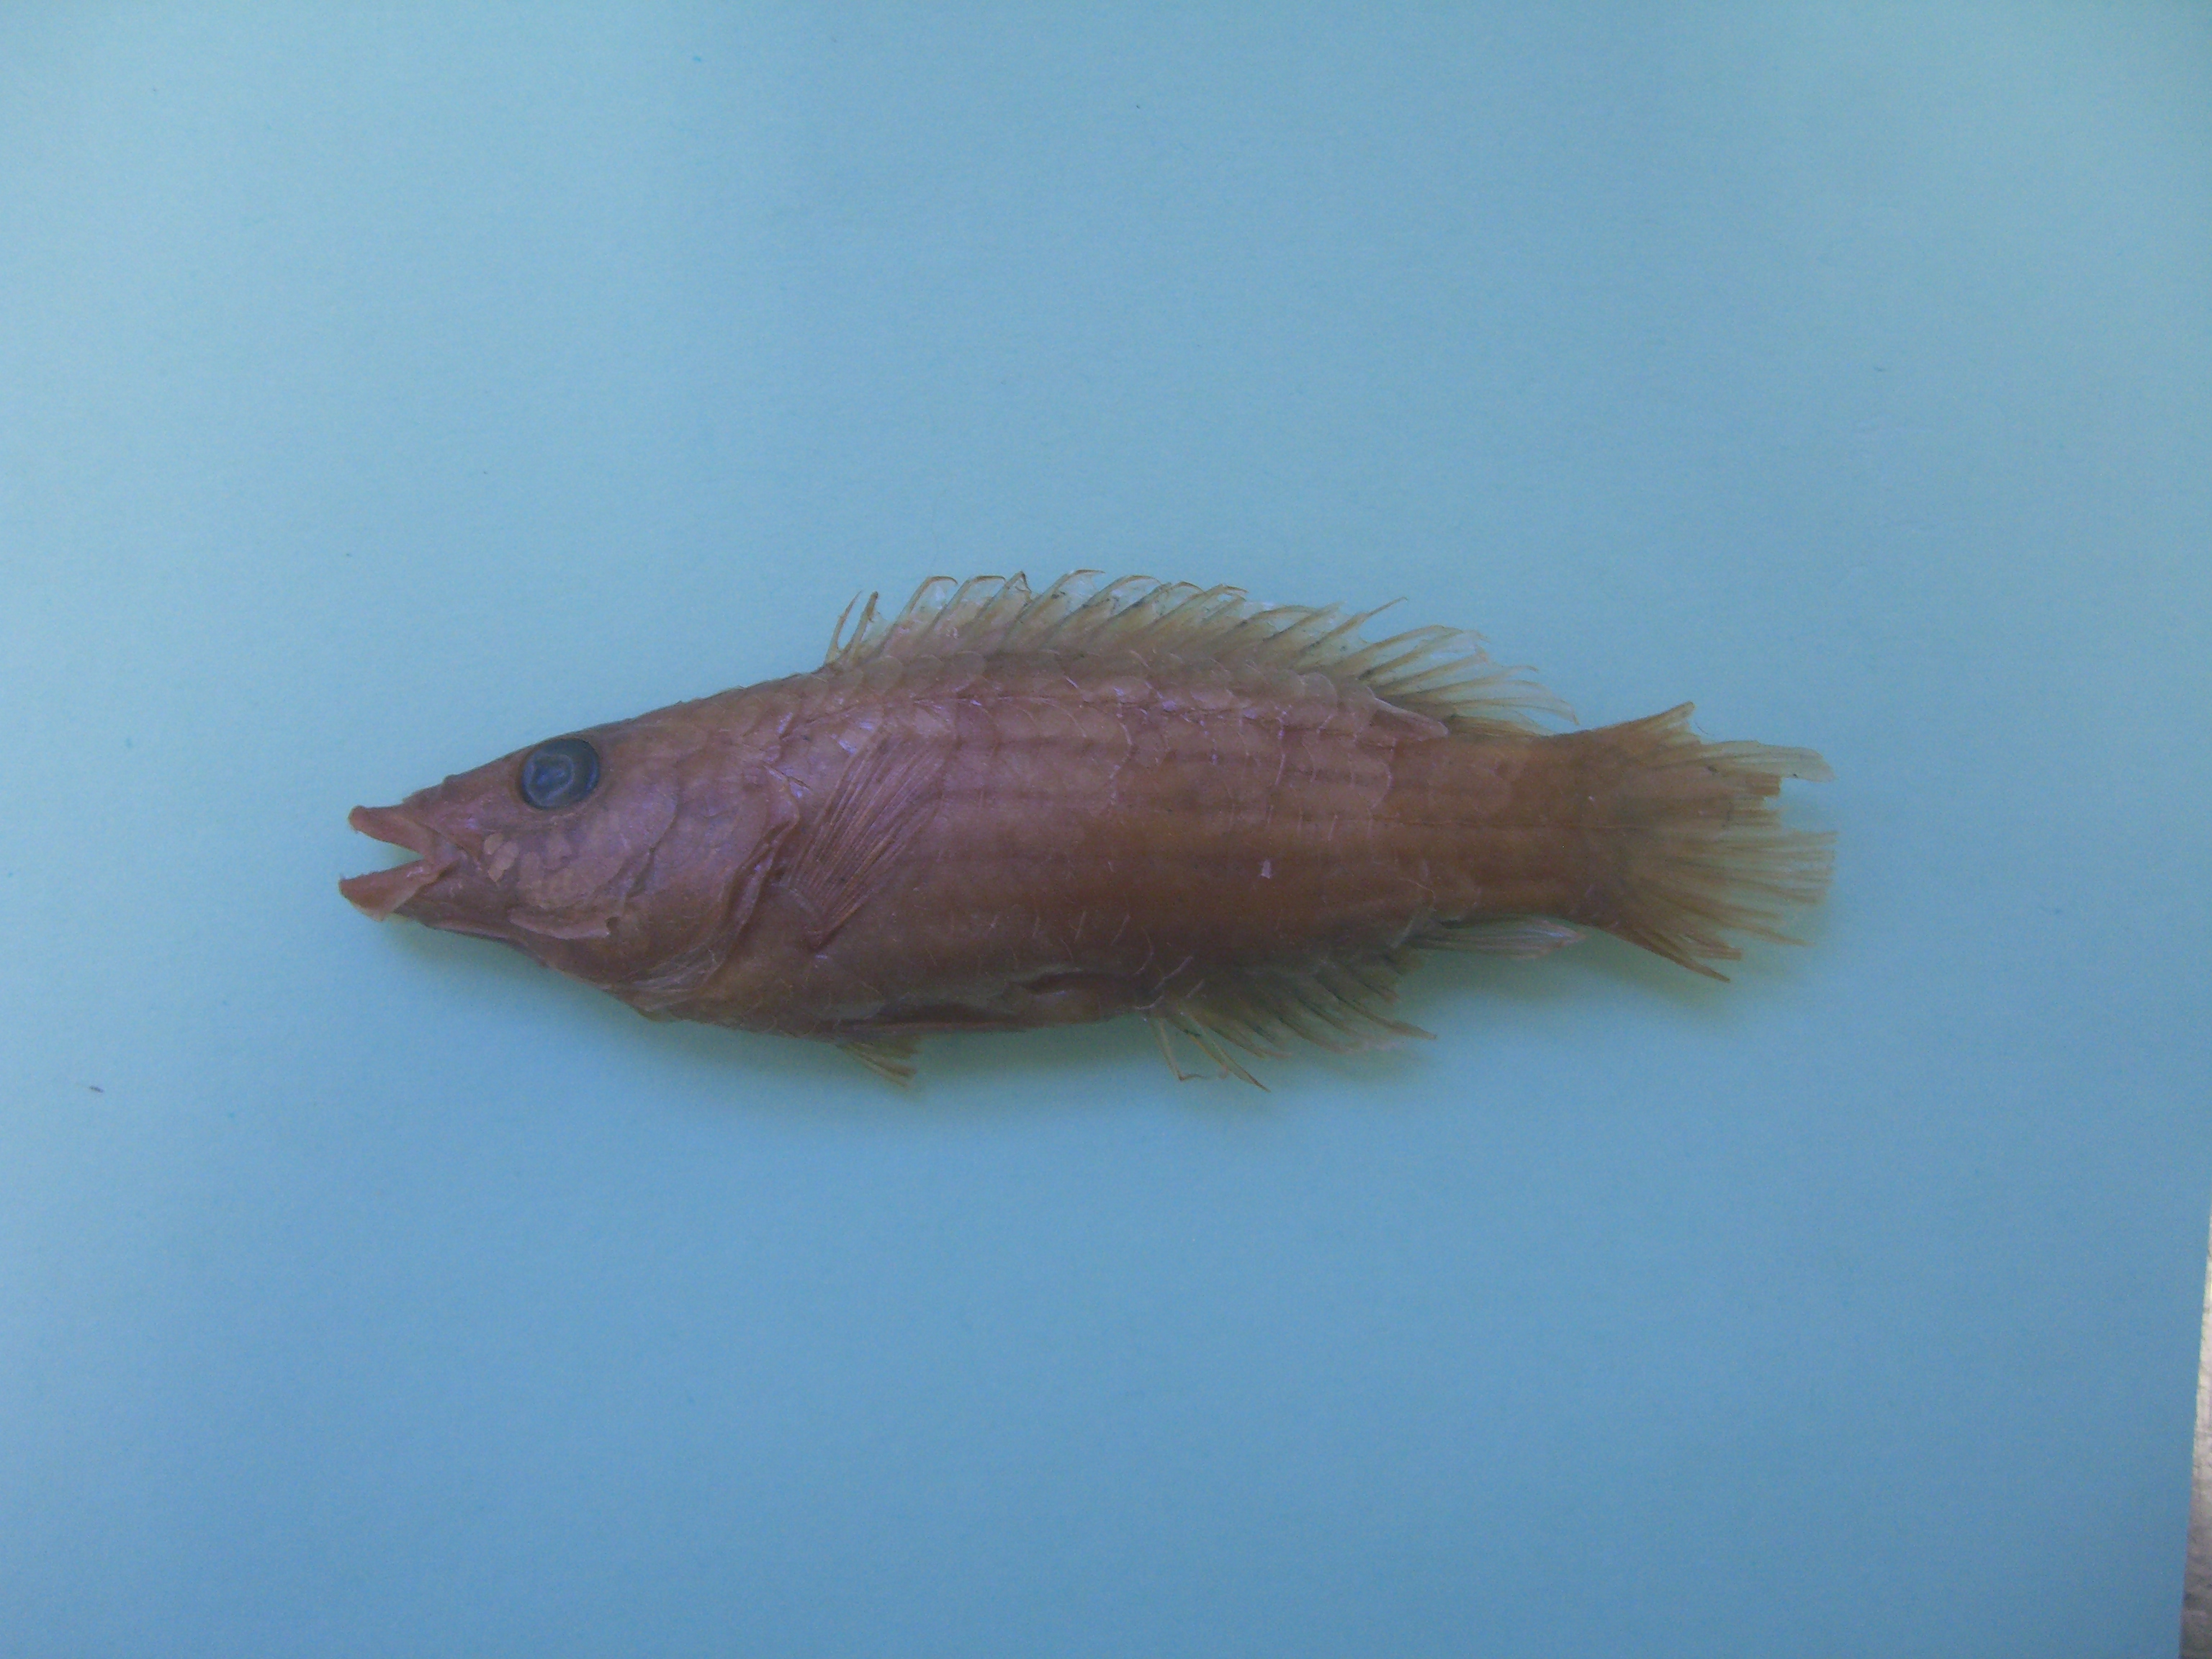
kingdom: Animalia
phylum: Chordata
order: Perciformes
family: Labridae
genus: Pseudocheilinus
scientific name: Pseudocheilinus octotaenia
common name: Eightline wrasse
